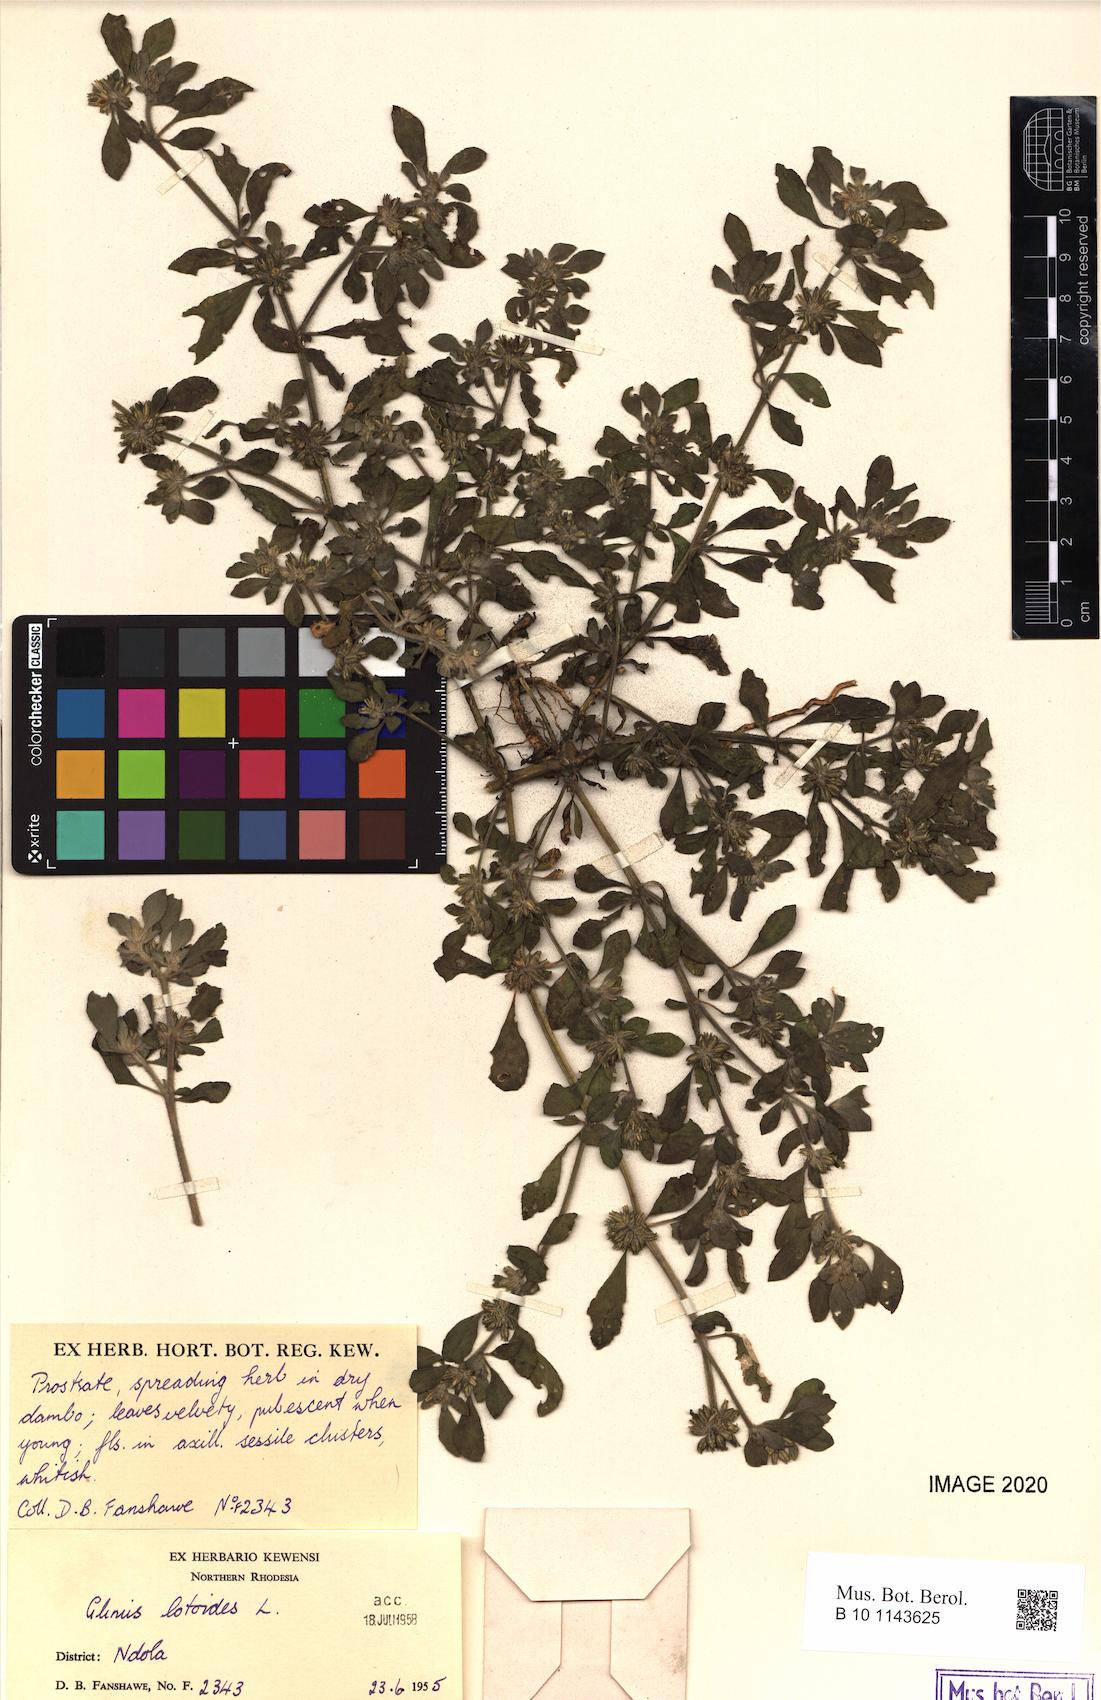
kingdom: Plantae
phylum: Tracheophyta
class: Magnoliopsida
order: Caryophyllales
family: Molluginaceae
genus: Glinus
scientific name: Glinus hirtus
